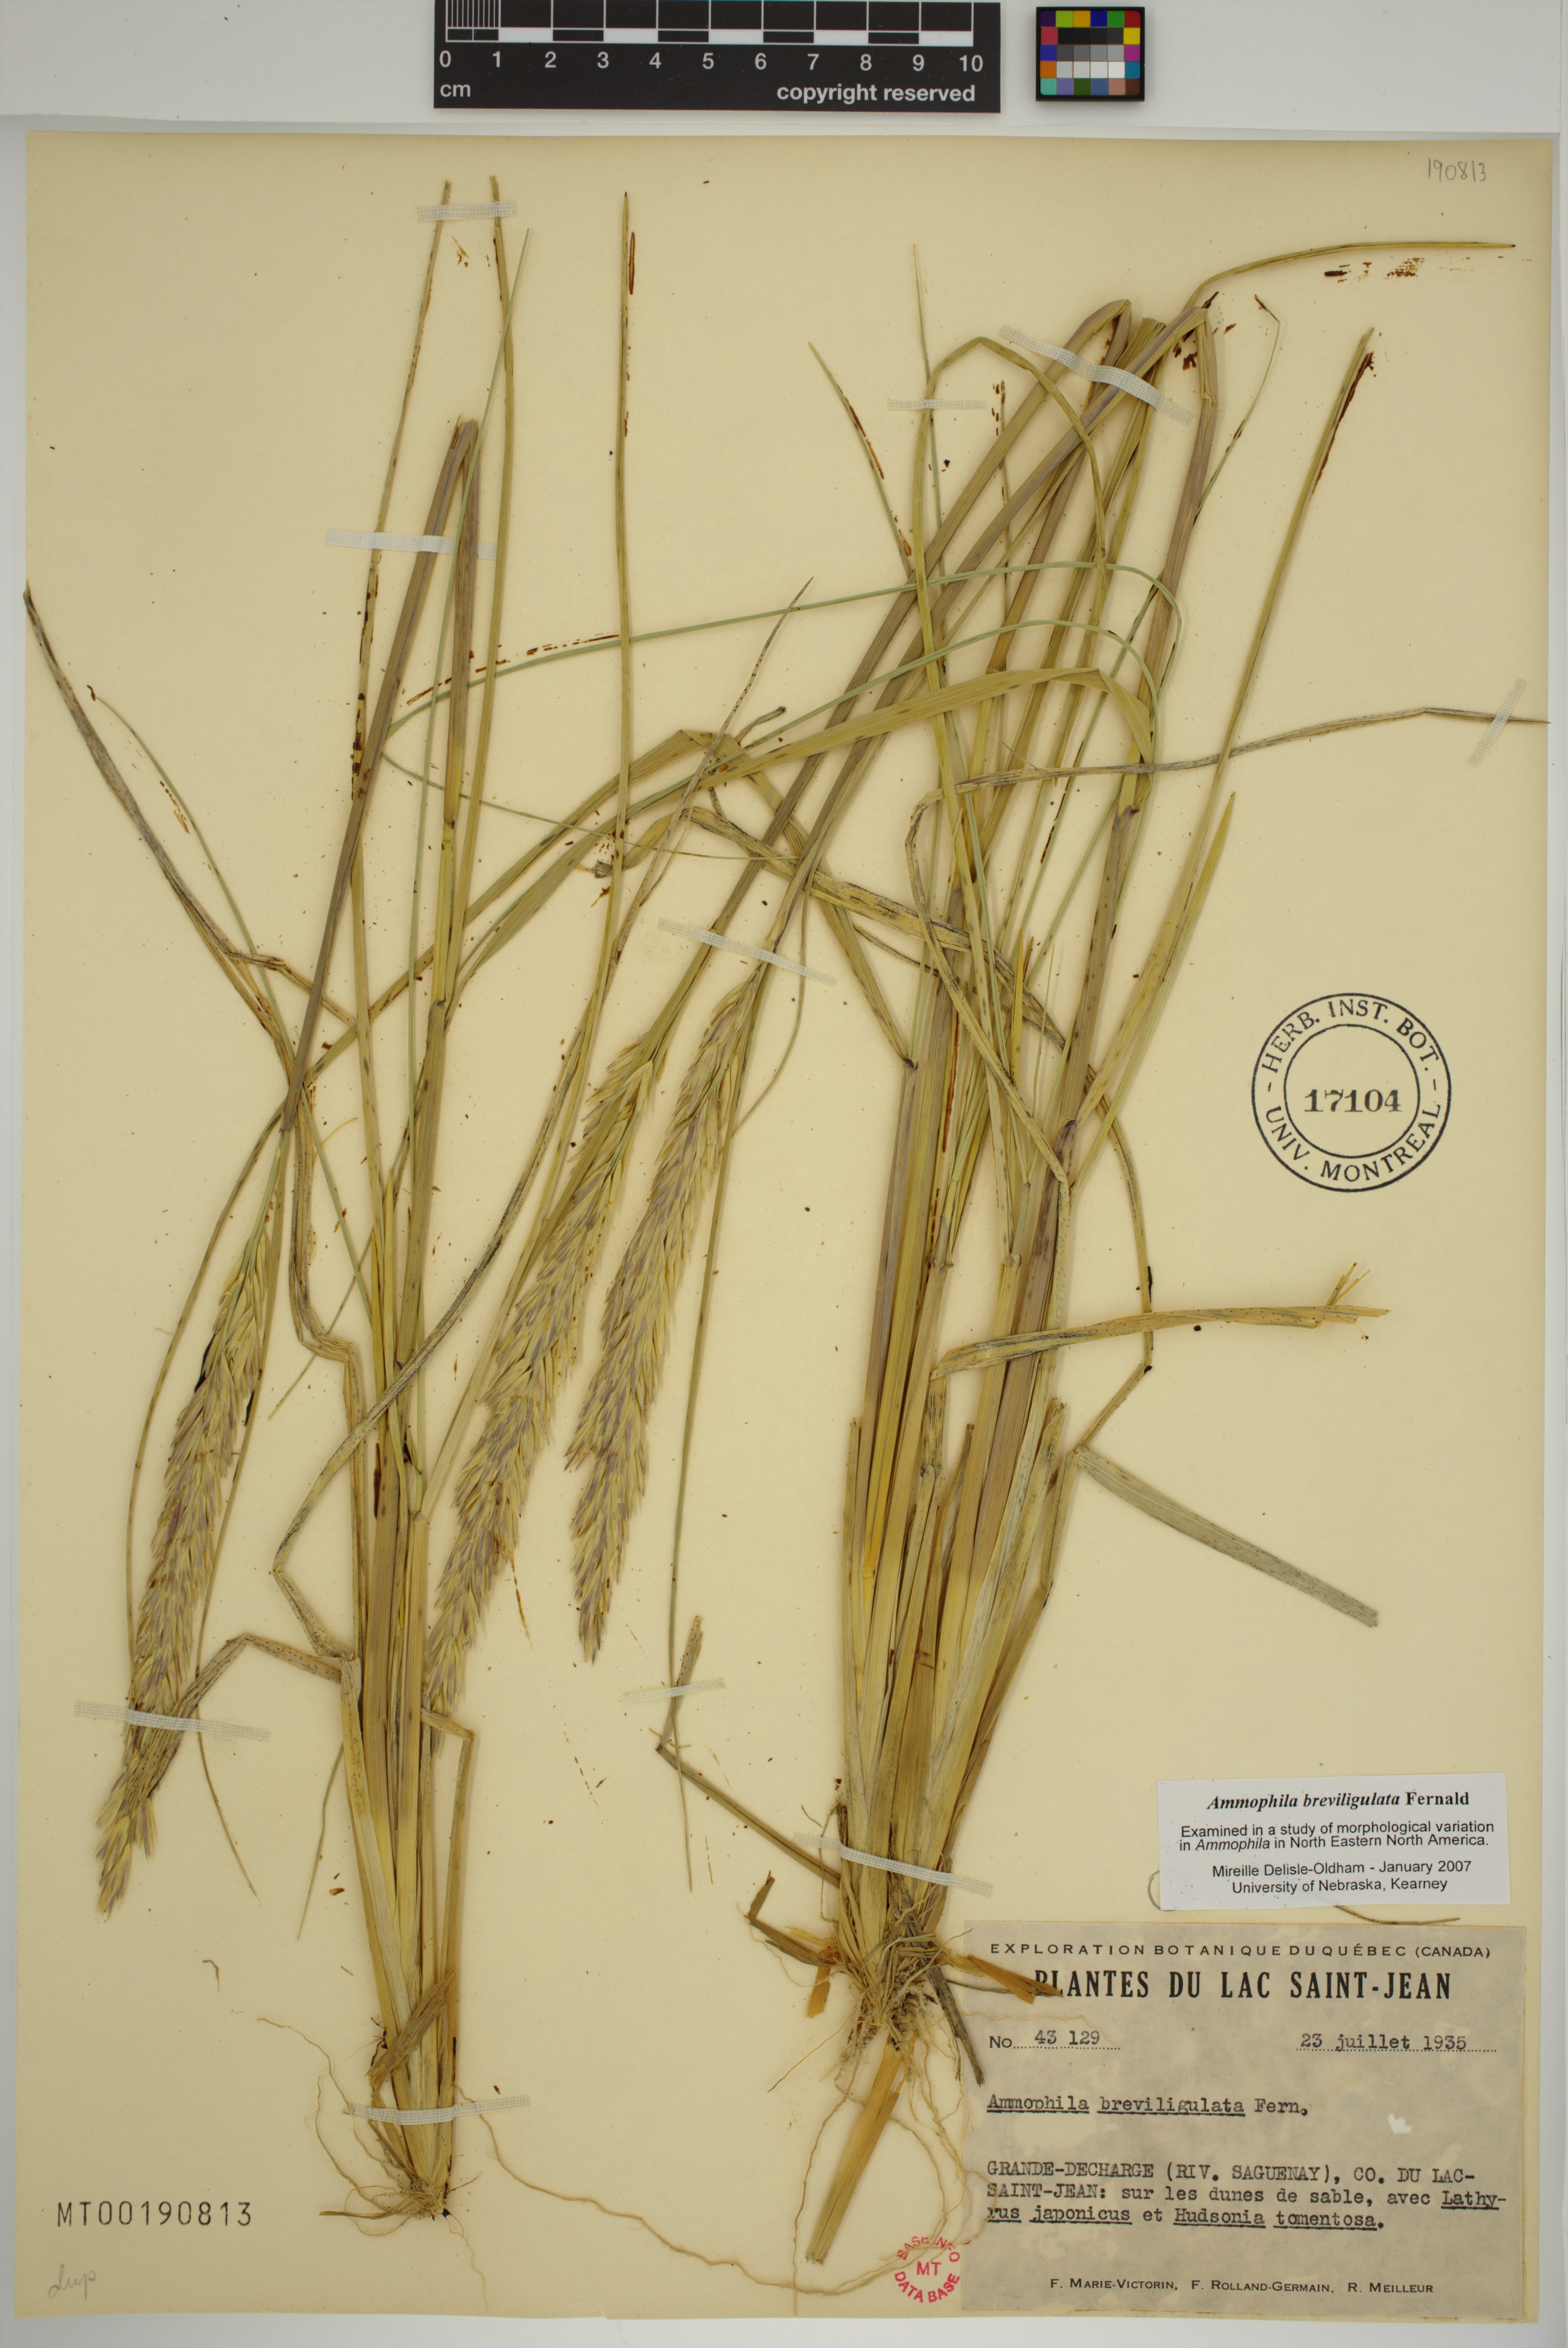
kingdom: Plantae
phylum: Tracheophyta
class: Liliopsida
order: Poales
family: Poaceae
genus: Calamagrostis
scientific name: Calamagrostis breviligulata
